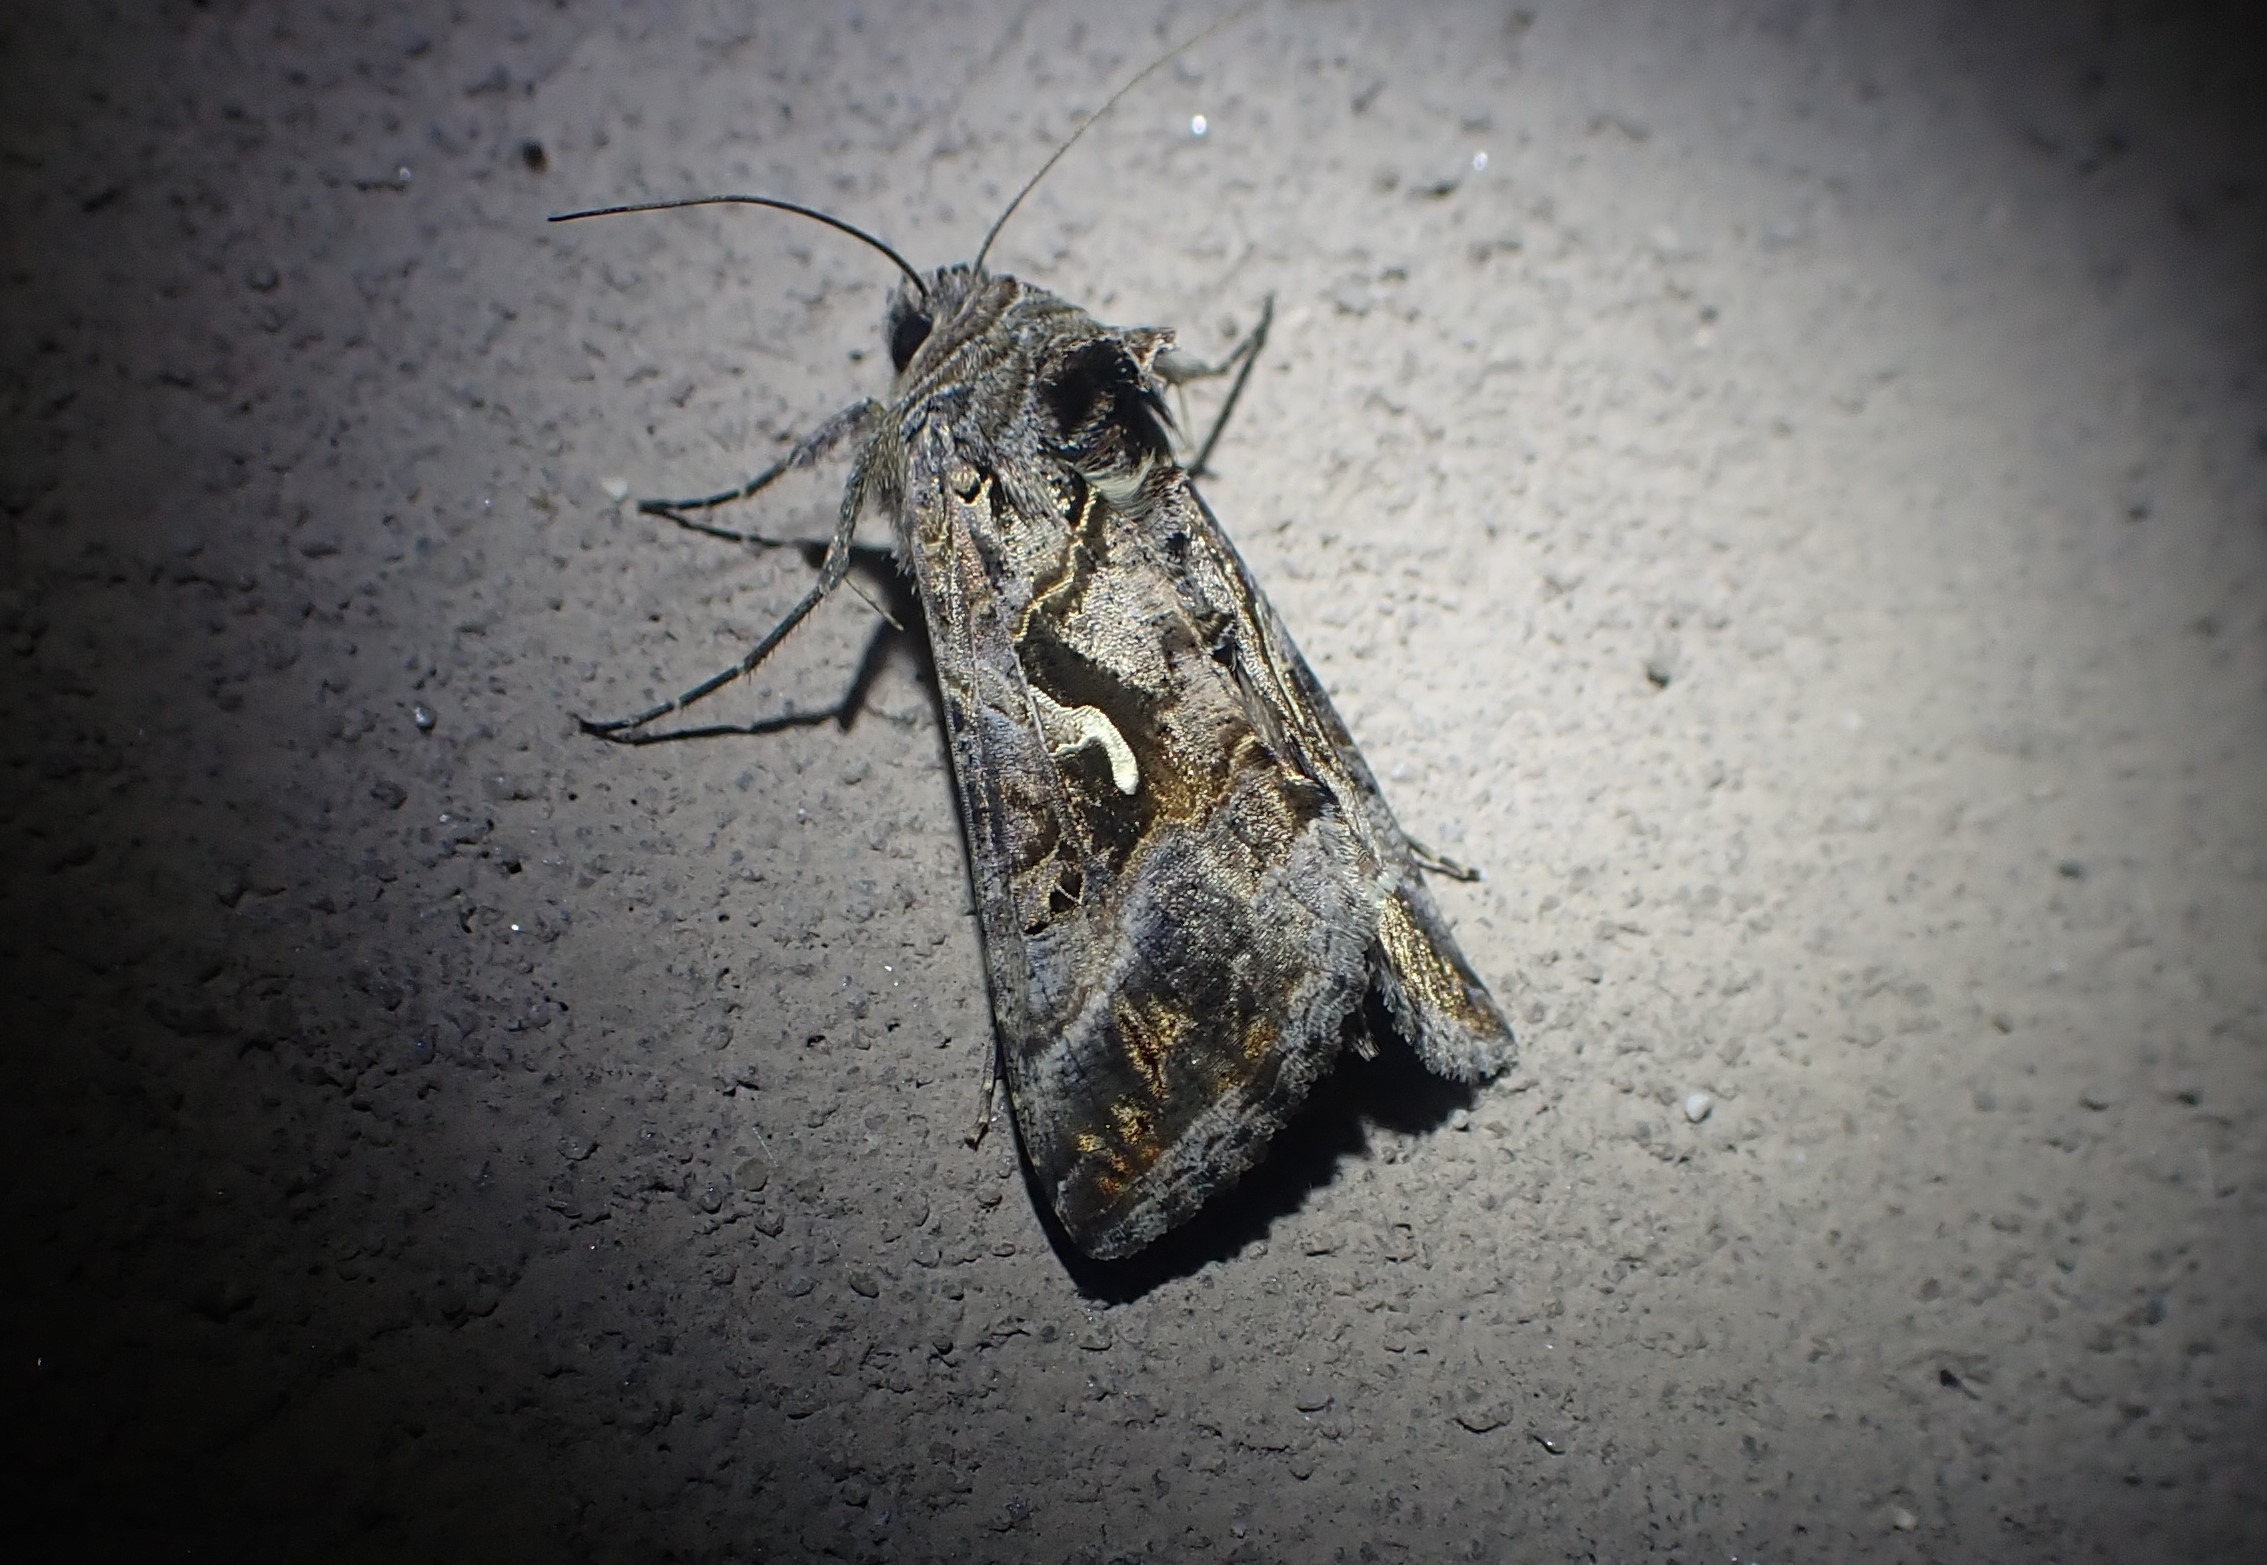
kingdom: Animalia
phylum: Arthropoda
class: Insecta
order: Lepidoptera
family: Noctuidae
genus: Autographa
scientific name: Autographa gamma
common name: Gammaugle
